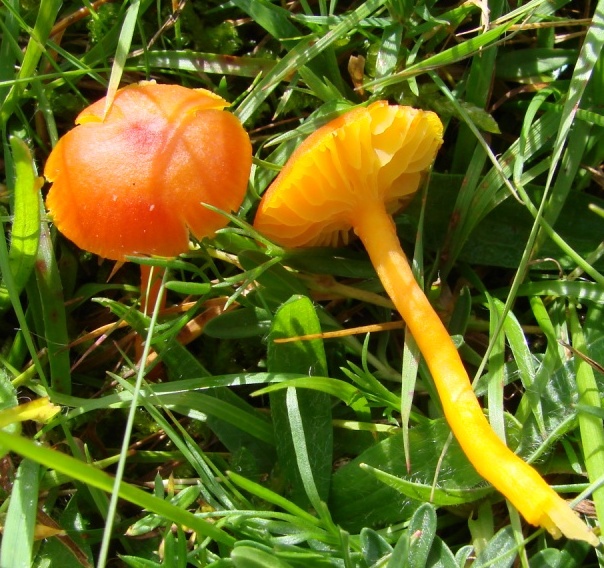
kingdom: Fungi
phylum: Basidiomycota
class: Agaricomycetes
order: Agaricales
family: Hygrophoraceae
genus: Hygrocybe
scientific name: Hygrocybe miniata
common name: mønje-vokshat
